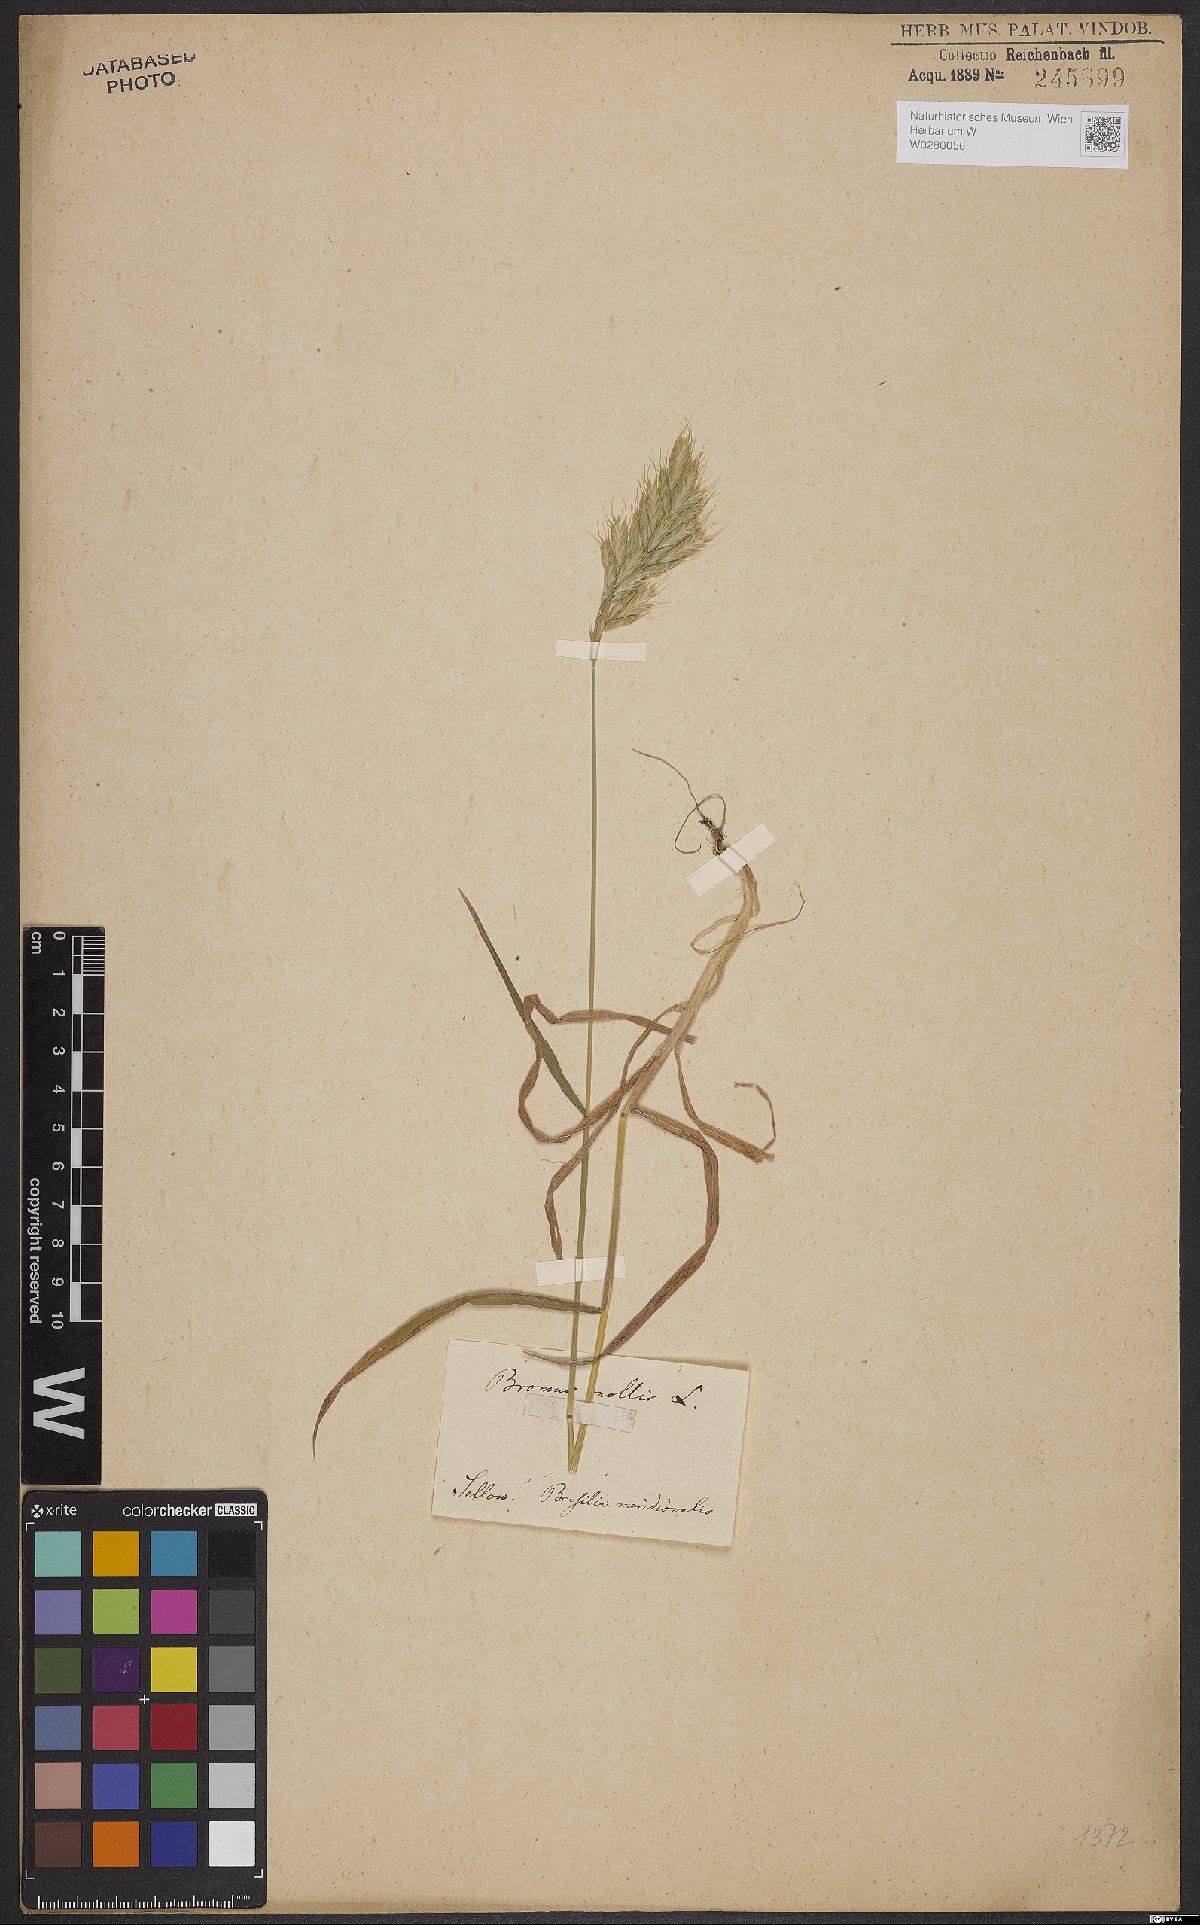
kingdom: Plantae
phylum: Tracheophyta
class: Liliopsida
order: Poales
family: Poaceae
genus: Bromus
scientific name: Bromus hordeaceus
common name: Soft brome
